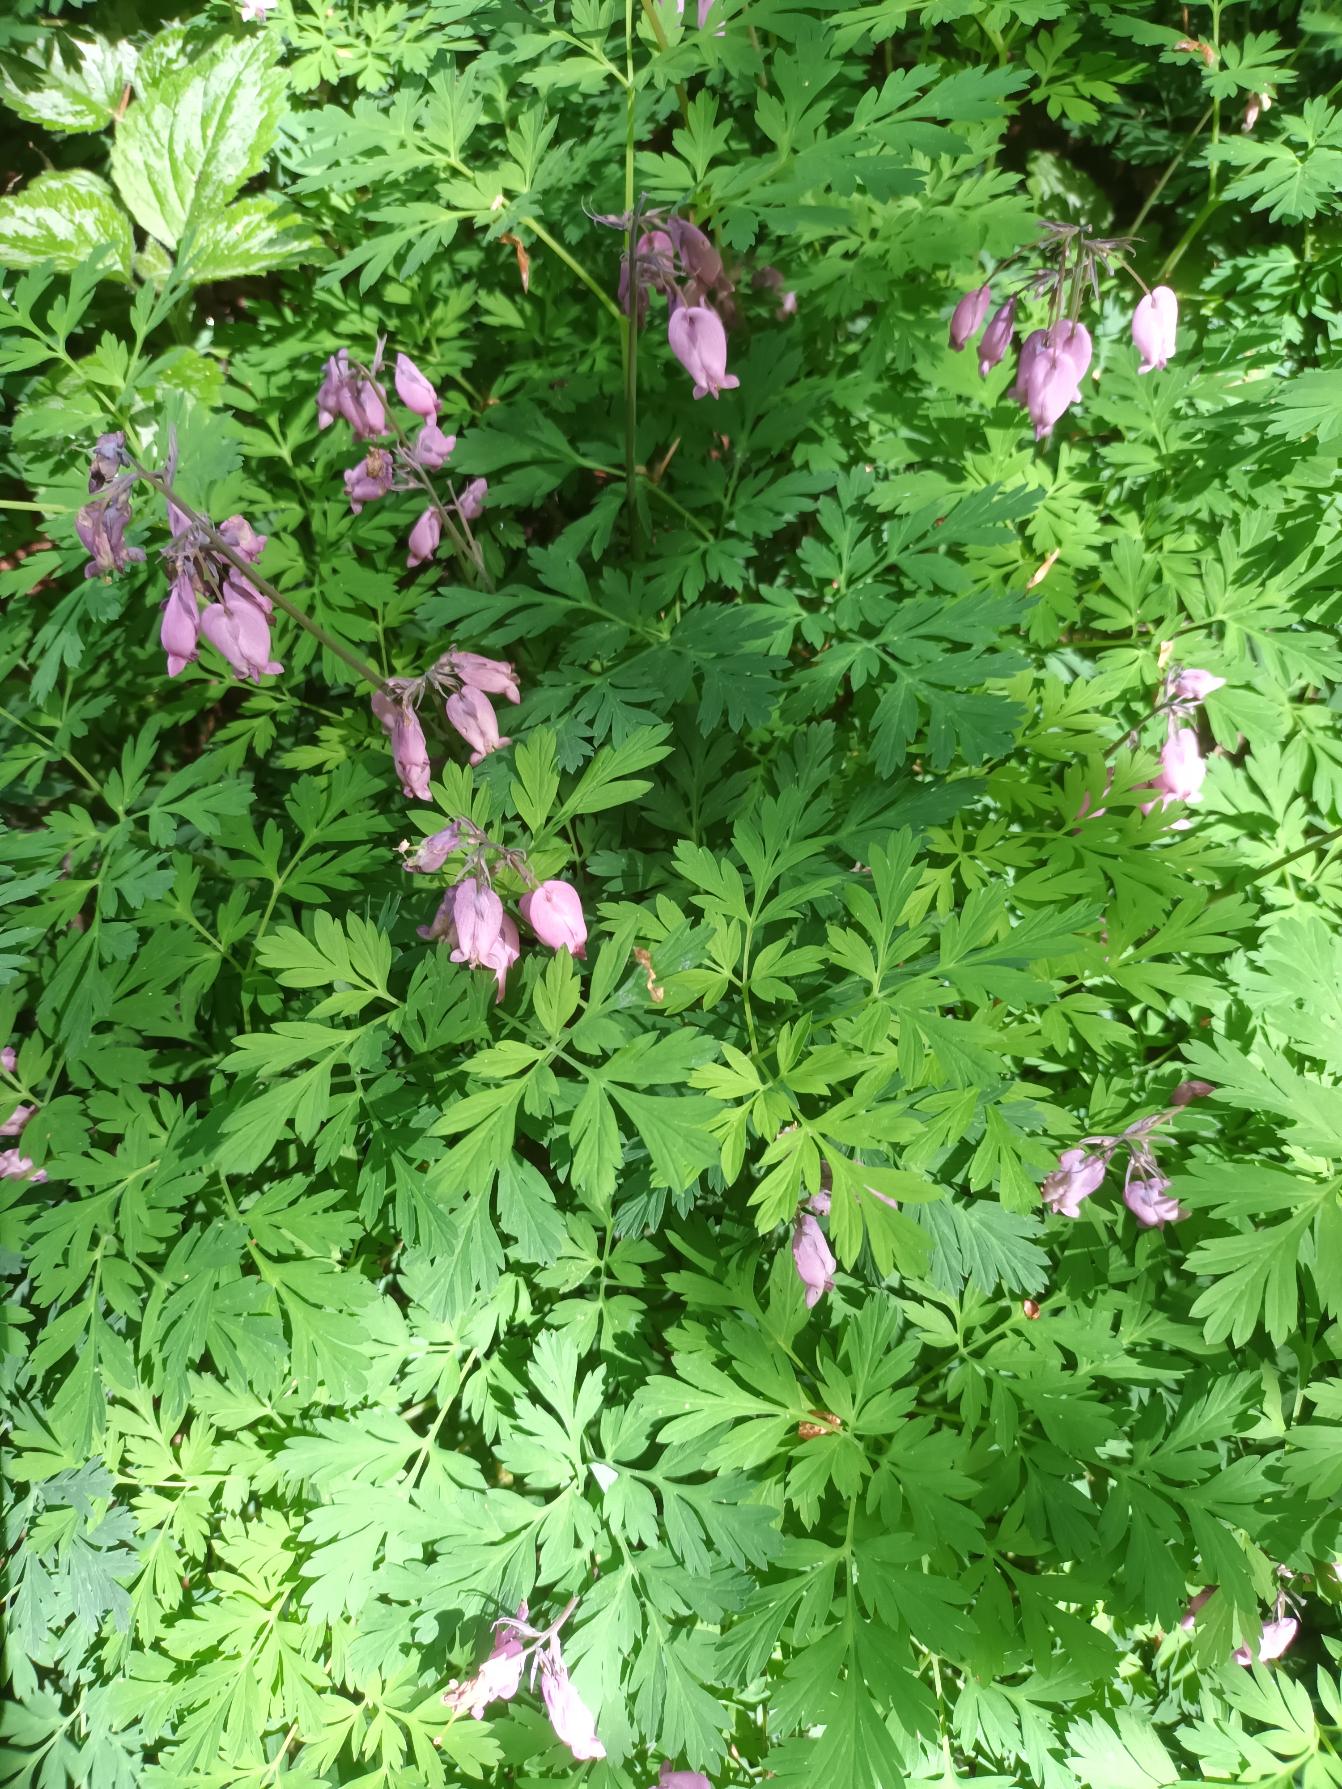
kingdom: Plantae
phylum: Tracheophyta
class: Magnoliopsida
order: Ranunculales
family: Papaveraceae
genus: Dicentra
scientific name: Dicentra formosa
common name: Småhjerte
